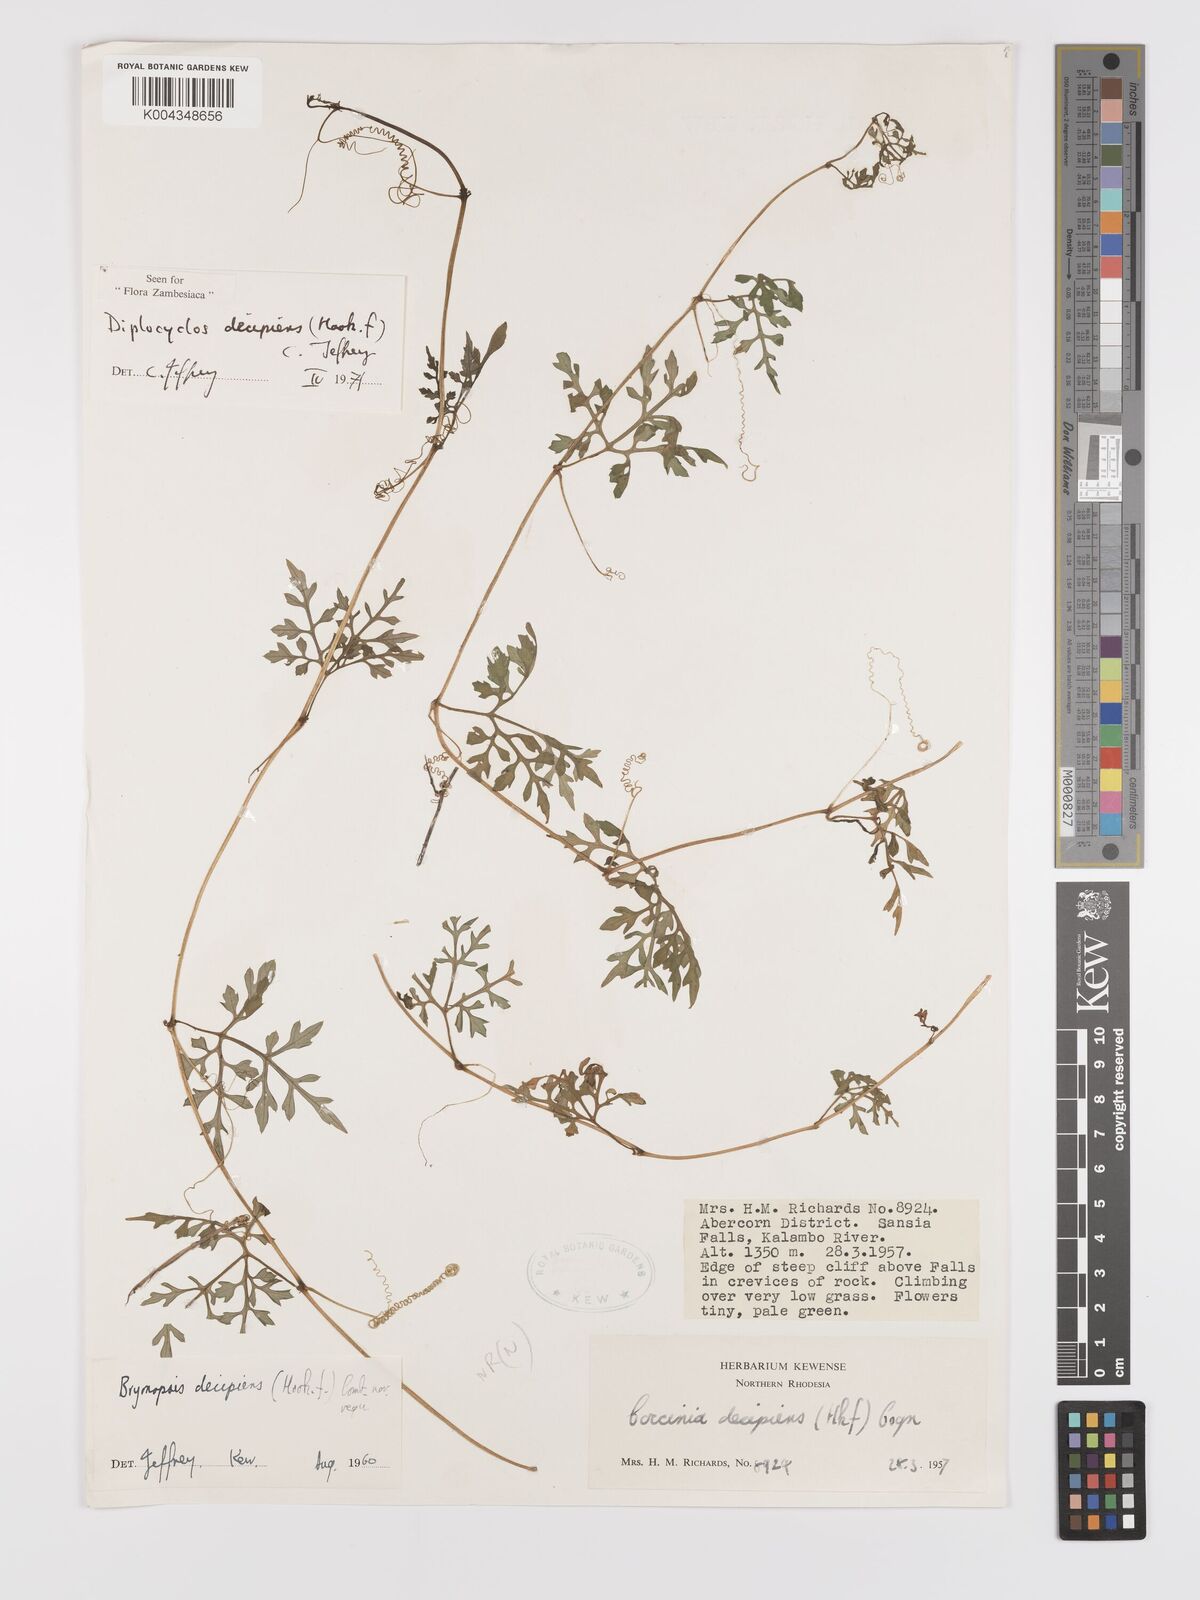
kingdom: Plantae
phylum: Tracheophyta
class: Magnoliopsida
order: Cucurbitales
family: Cucurbitaceae
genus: Diplocyclos
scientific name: Diplocyclos decipiens
